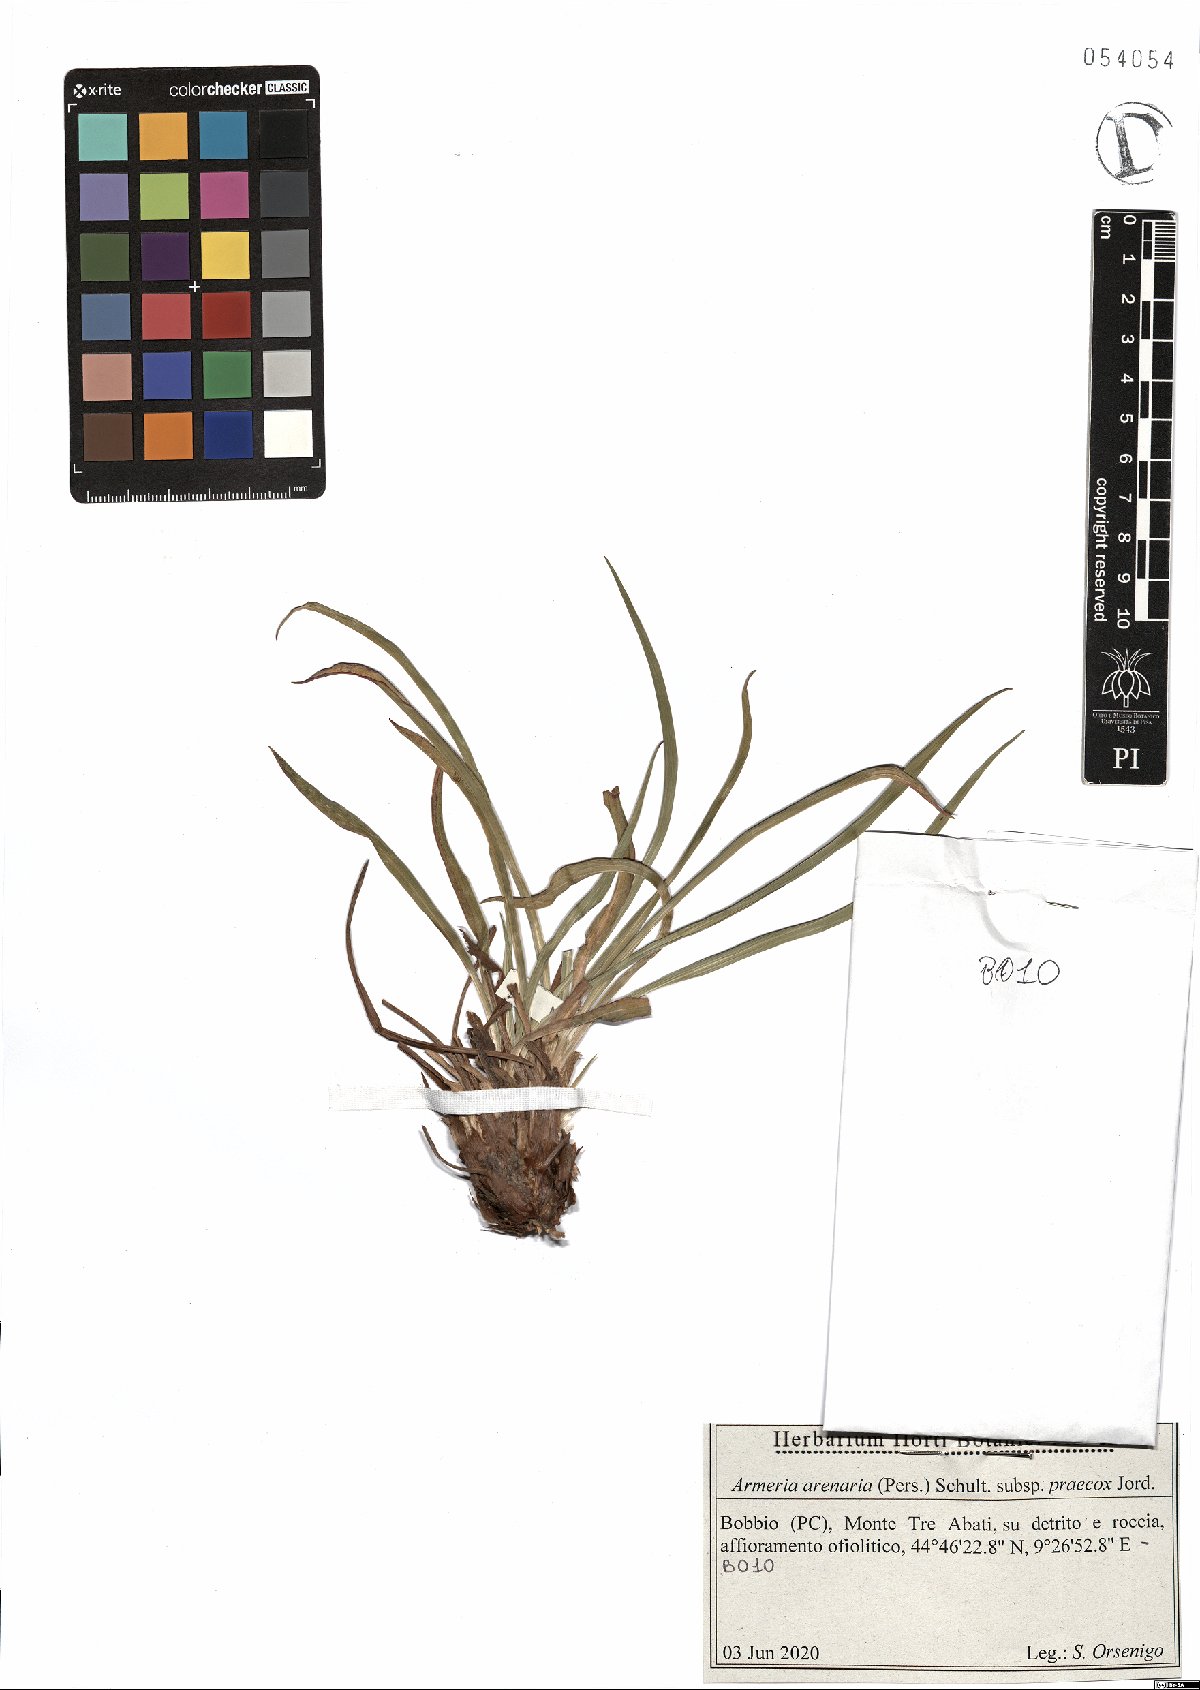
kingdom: Plantae
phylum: Tracheophyta
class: Magnoliopsida
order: Caryophyllales
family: Plumbaginaceae
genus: Armeria
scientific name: Armeria arenaria
